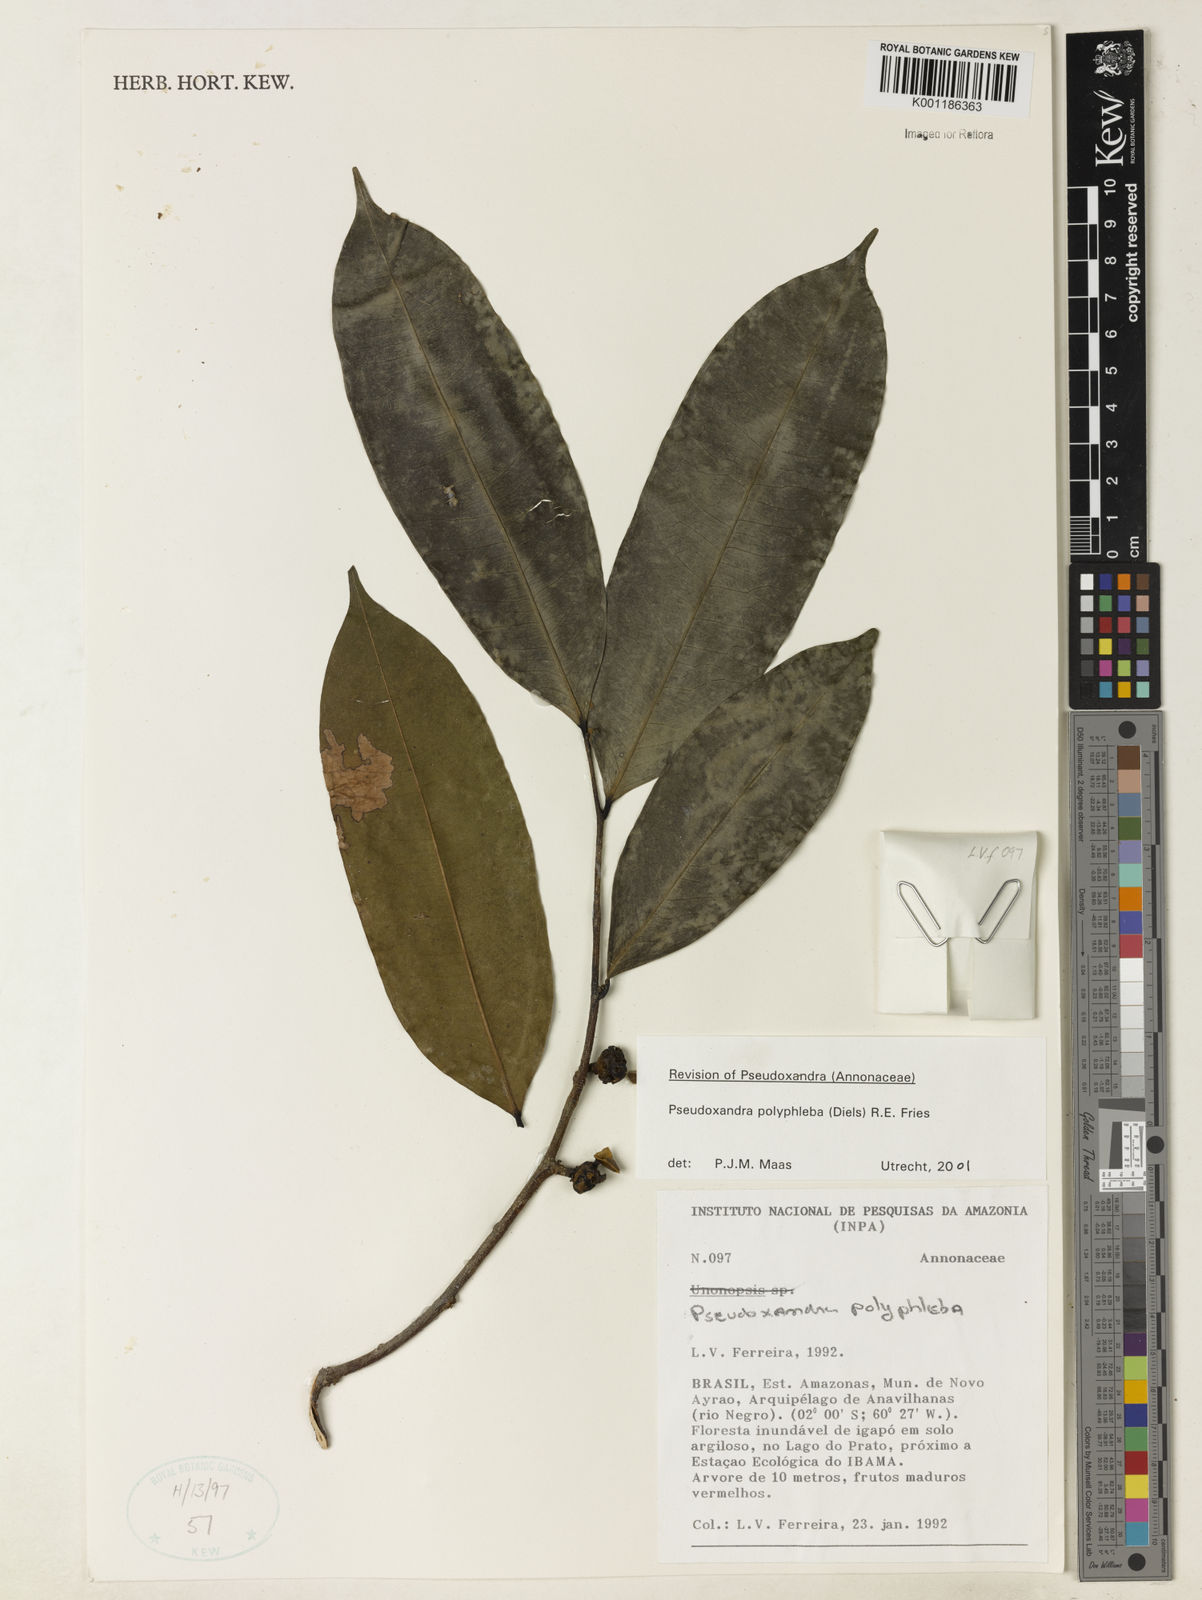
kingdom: Plantae
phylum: Tracheophyta
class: Magnoliopsida
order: Magnoliales
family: Annonaceae
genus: Pseudoxandra
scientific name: Pseudoxandra polyphleba
